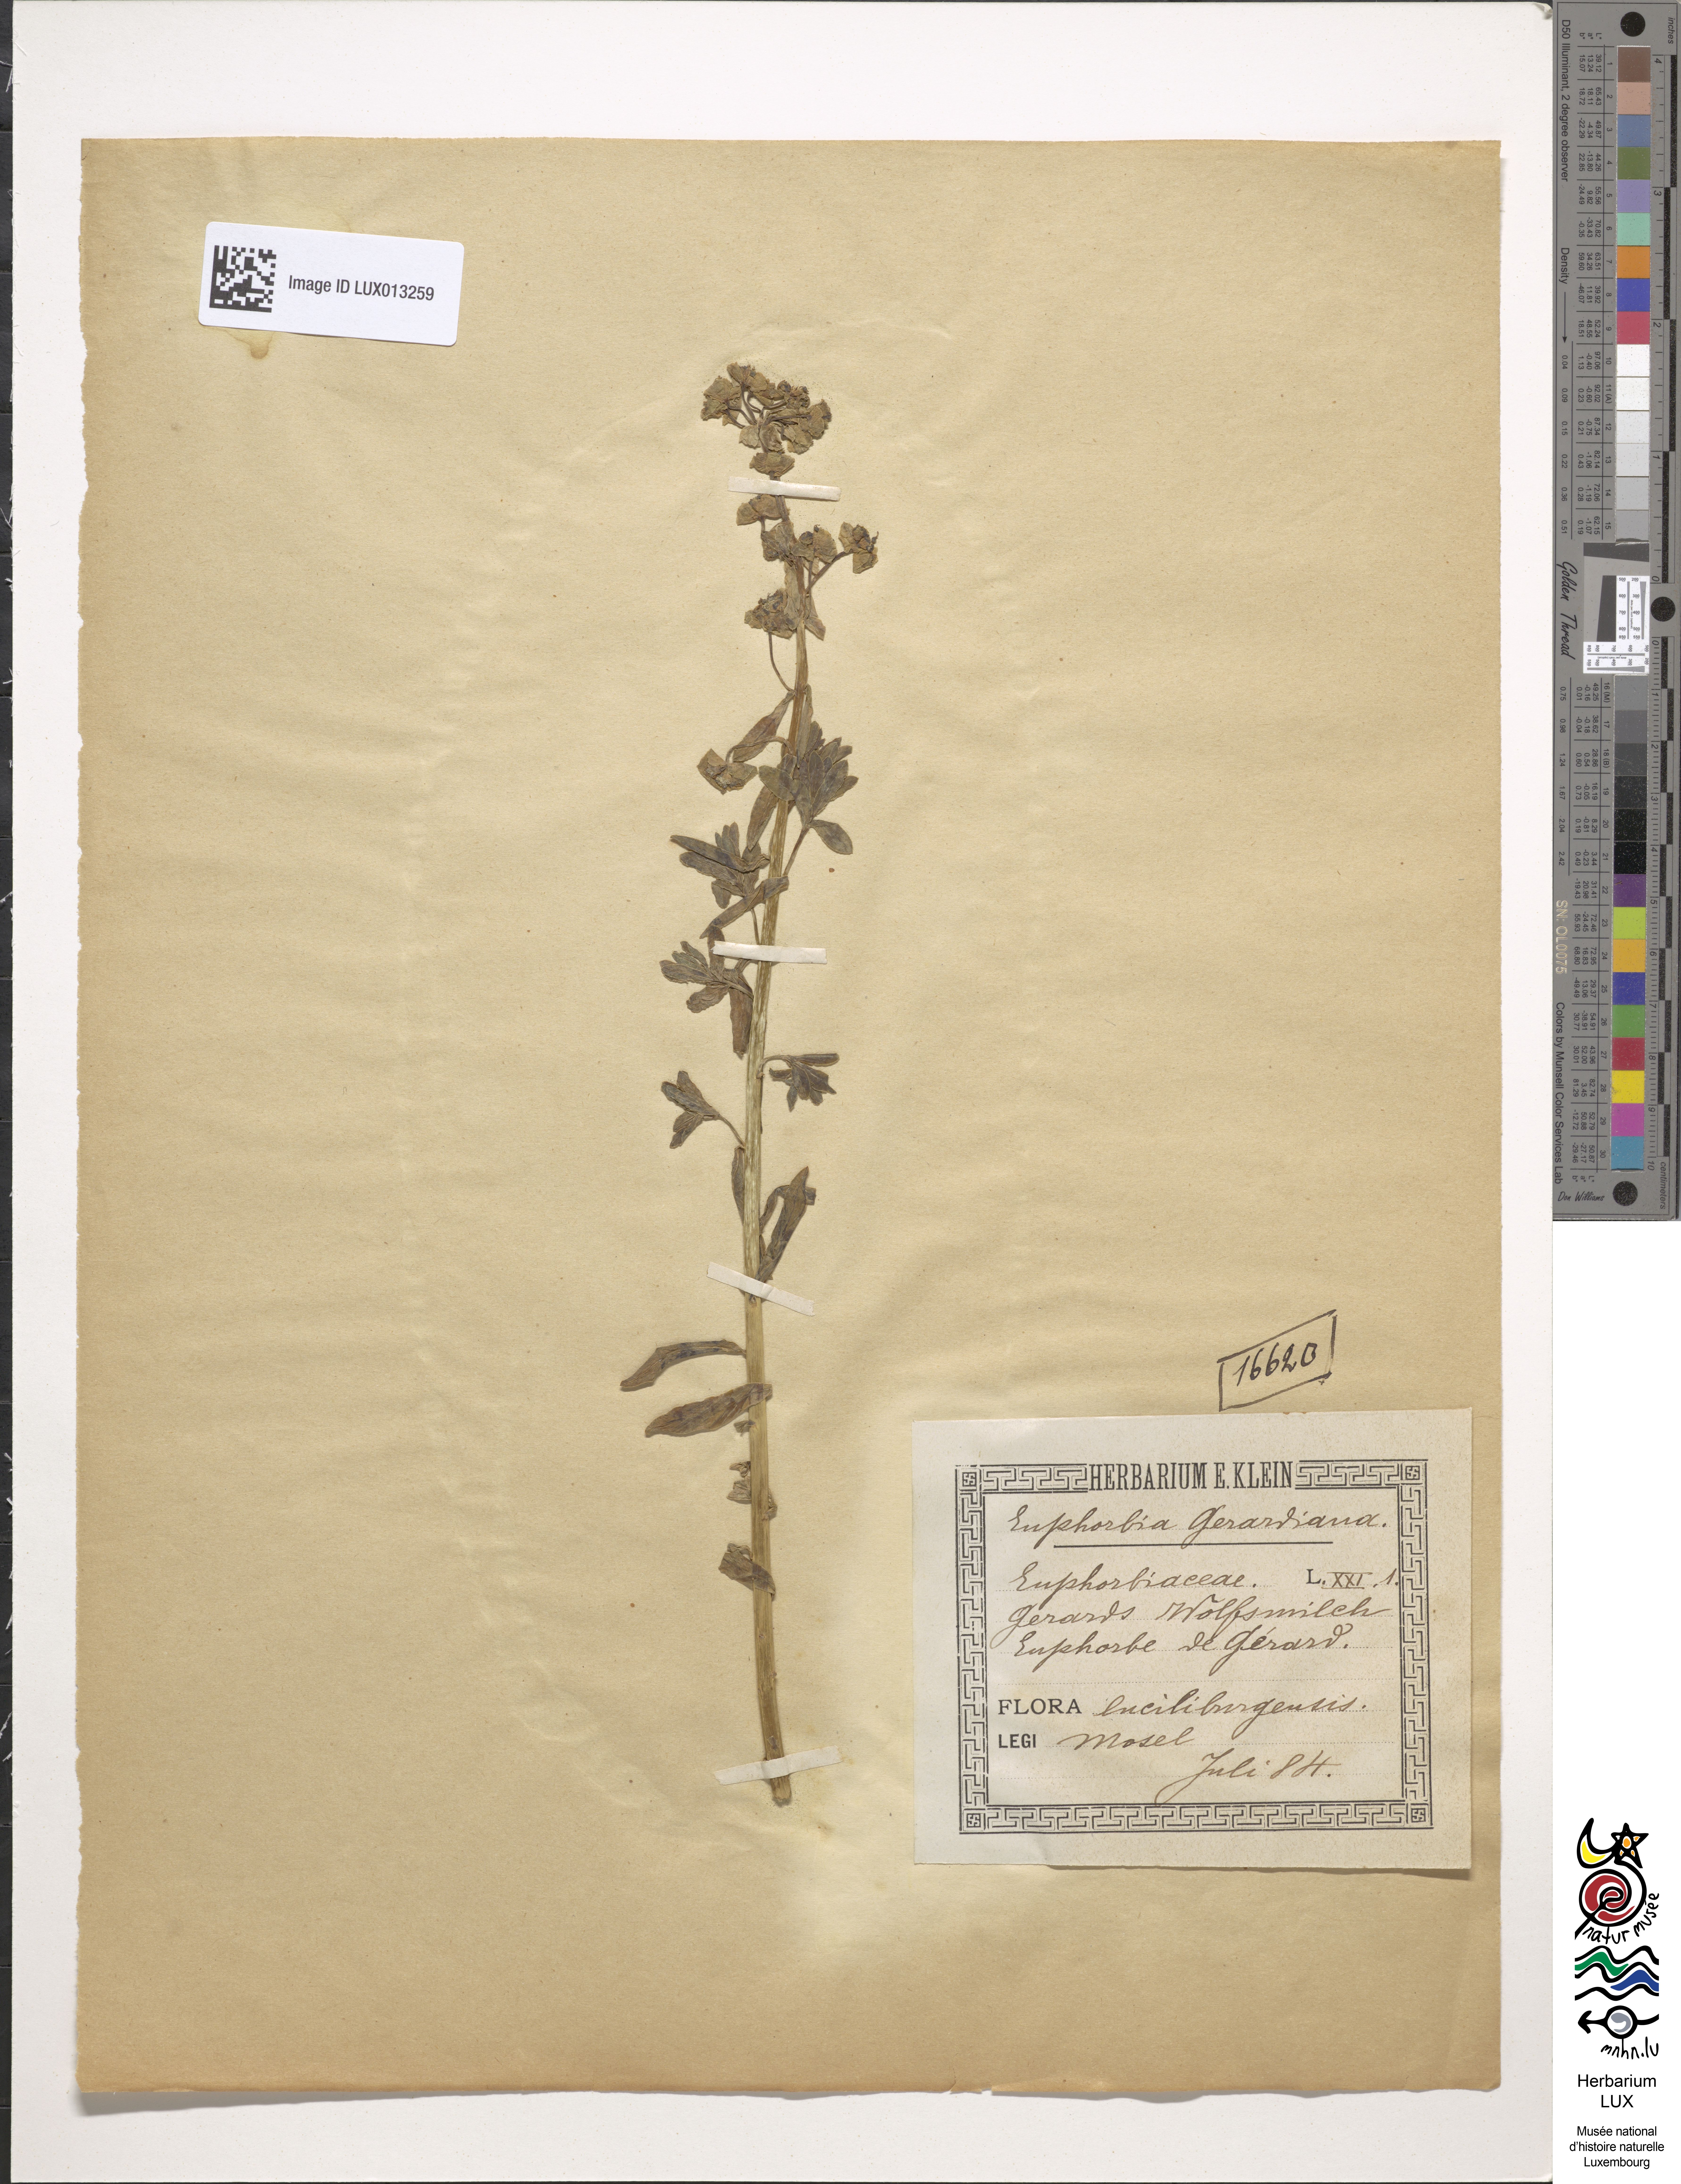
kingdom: Plantae
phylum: Tracheophyta
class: Magnoliopsida
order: Malpighiales
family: Euphorbiaceae
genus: Euphorbia
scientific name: Euphorbia seguieriana
